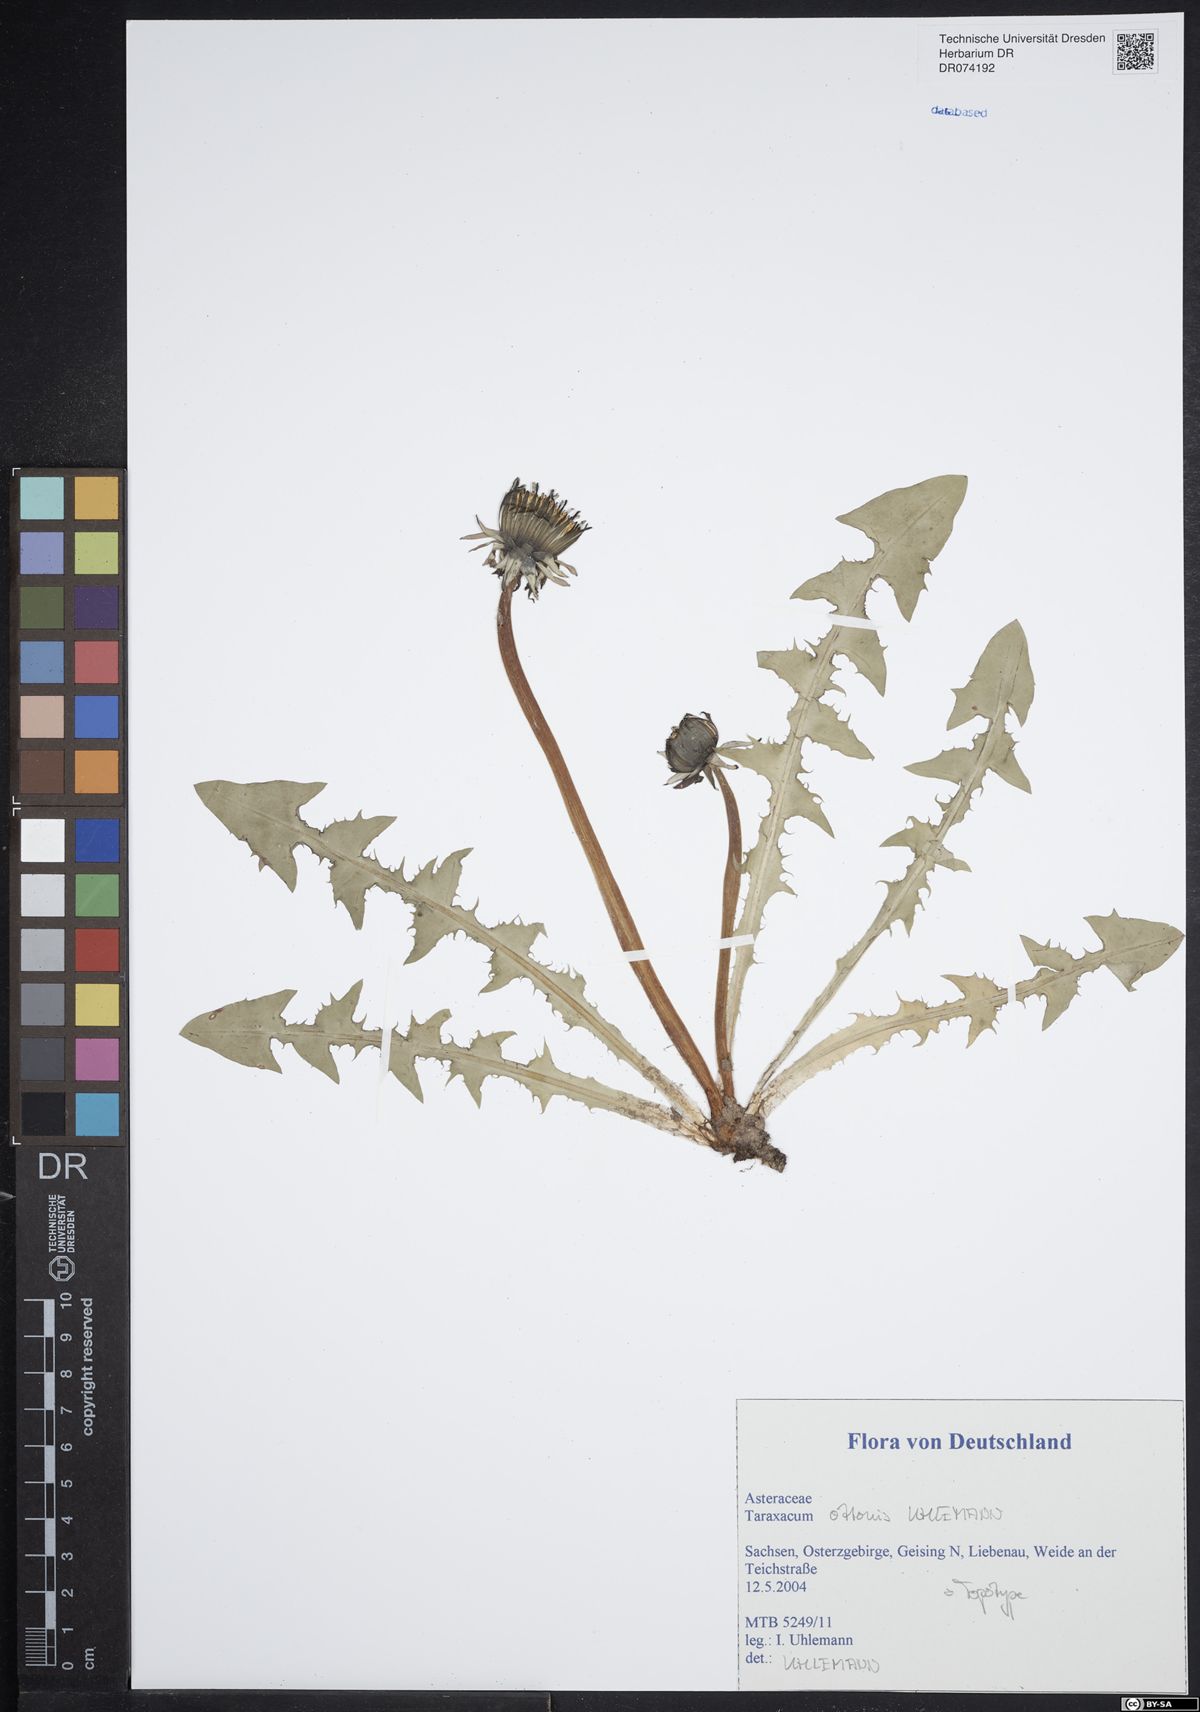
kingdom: Plantae
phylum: Tracheophyta
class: Magnoliopsida
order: Asterales
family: Asteraceae
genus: Taraxacum
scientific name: Taraxacum ottonis
